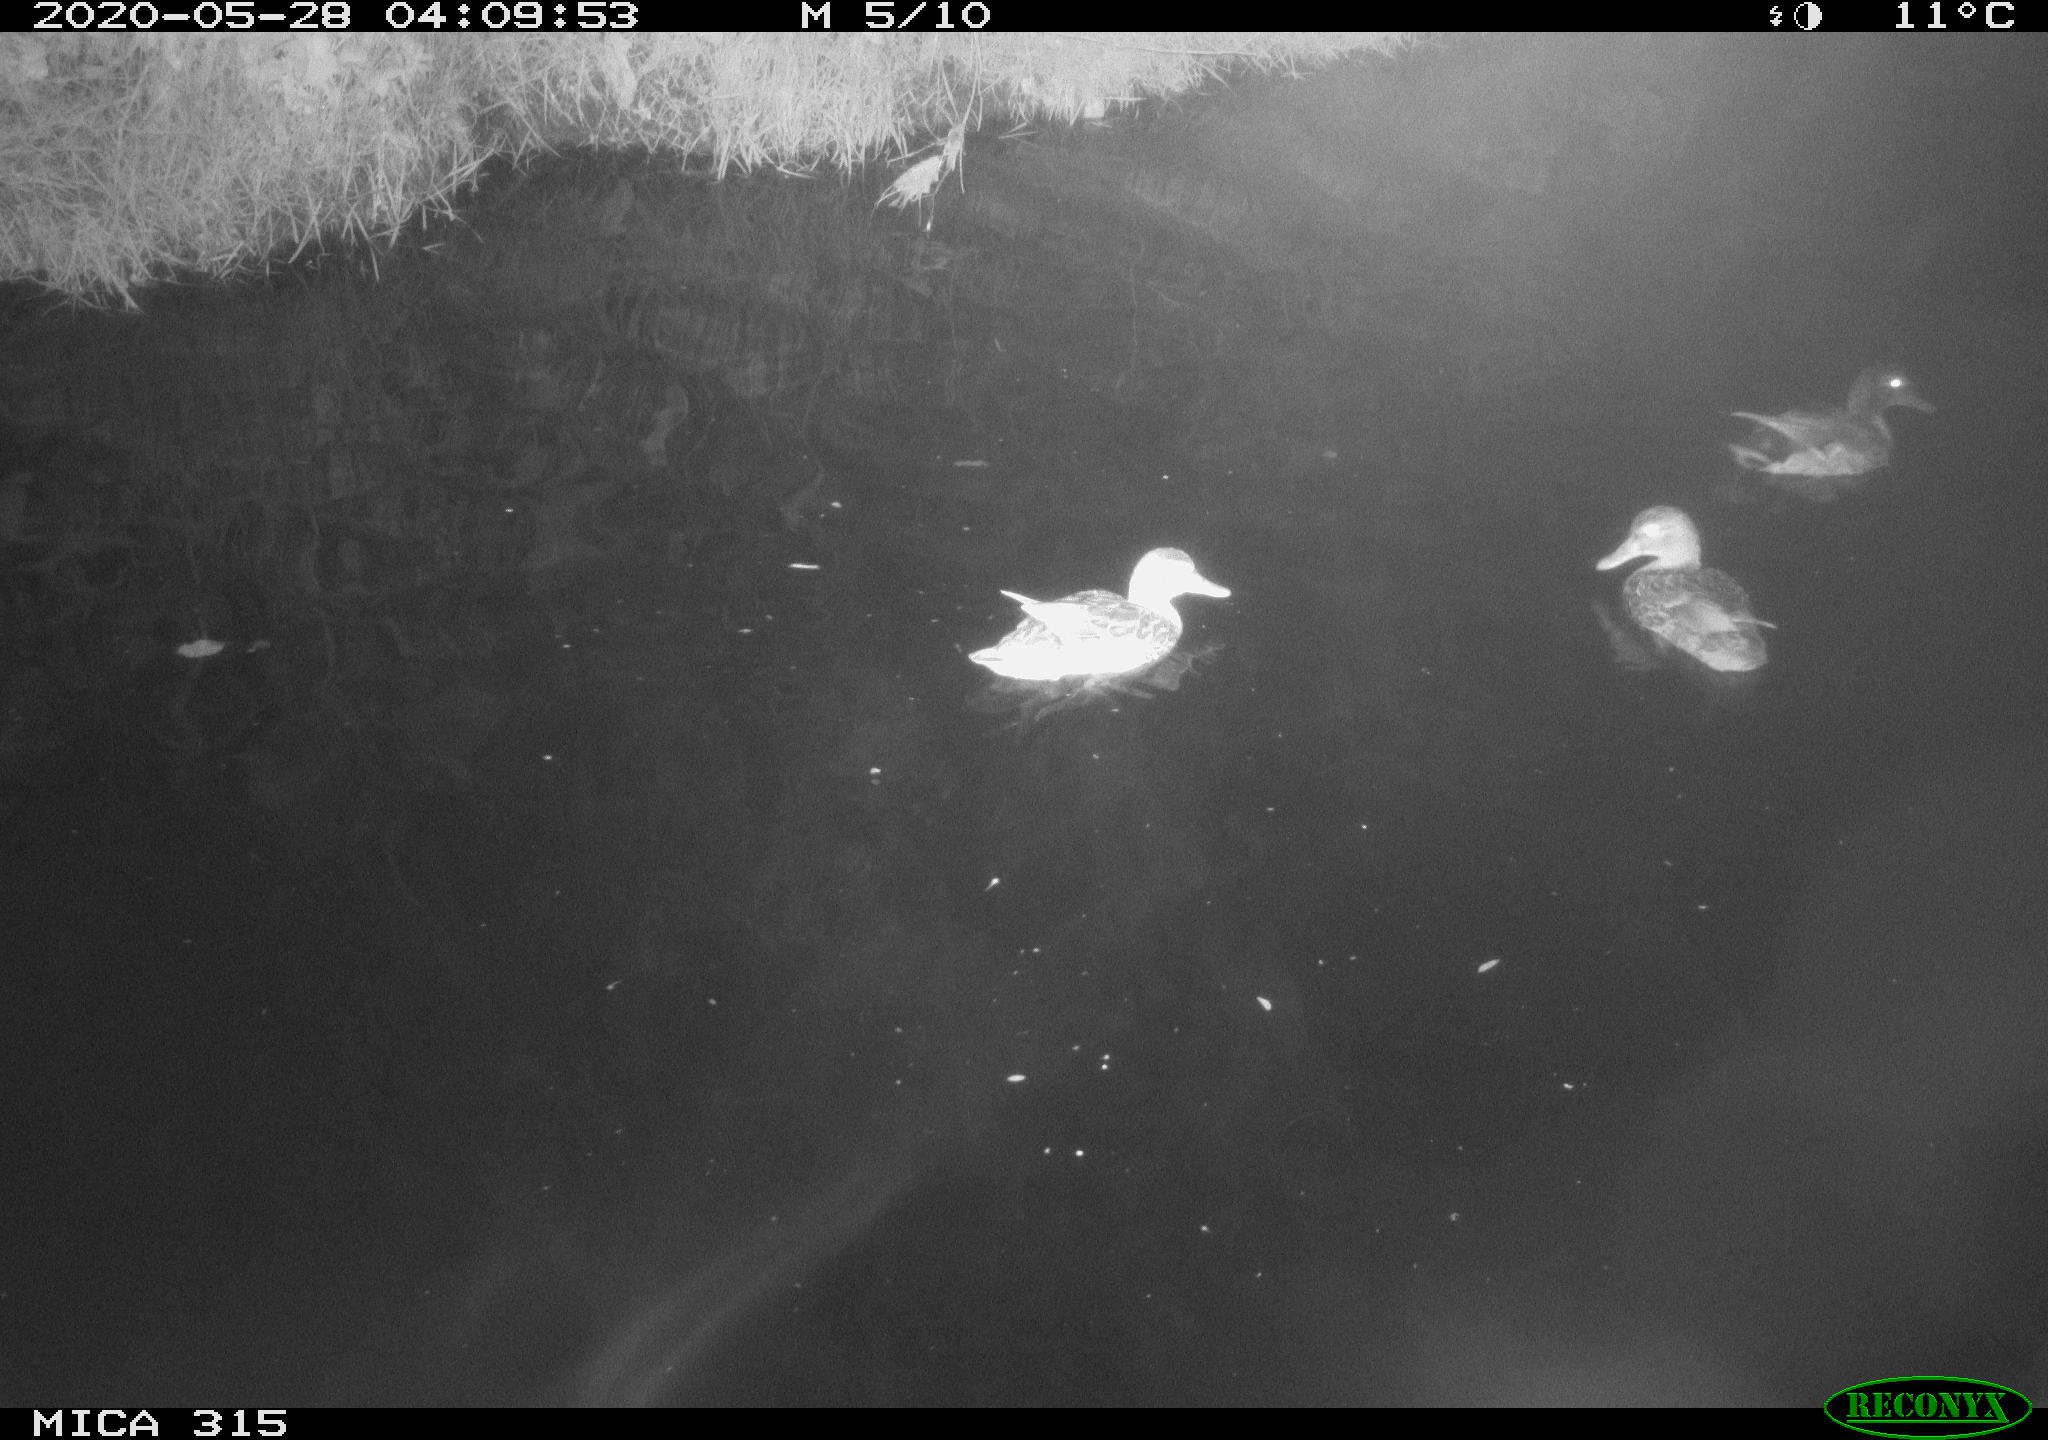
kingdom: Animalia
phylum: Chordata
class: Aves
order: Anseriformes
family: Anatidae
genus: Anas
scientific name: Anas platyrhynchos
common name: Mallard
